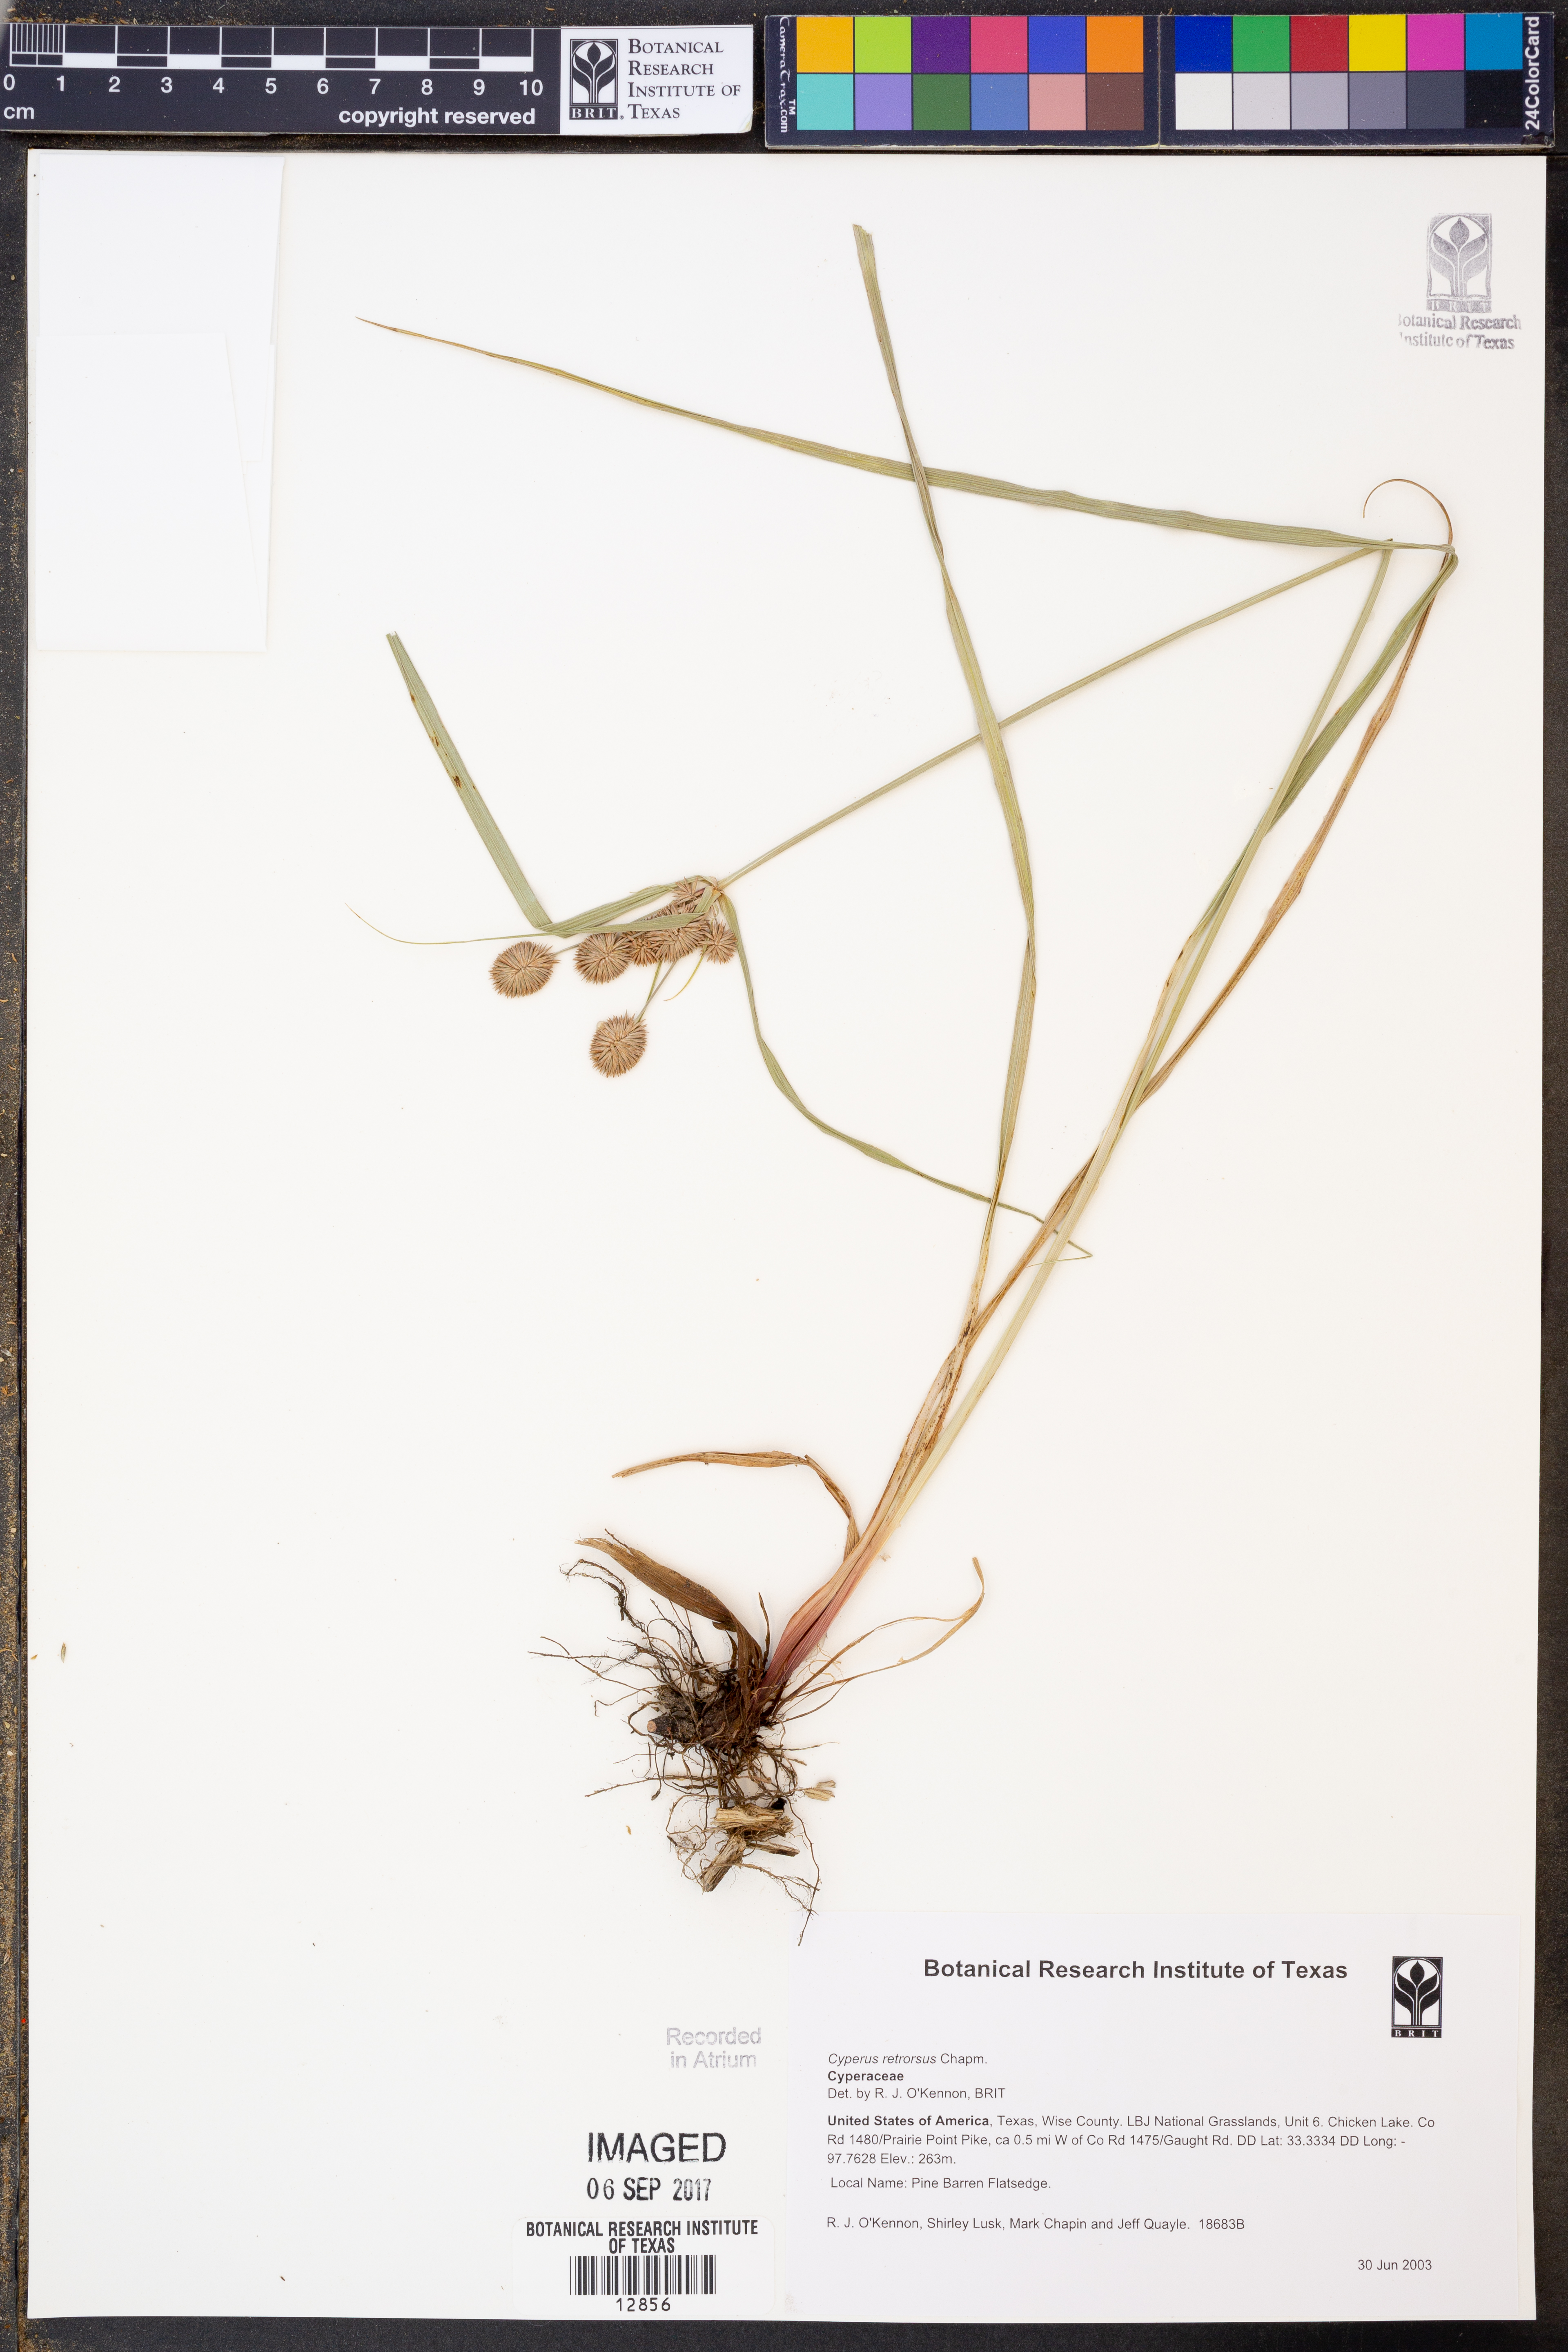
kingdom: Plantae
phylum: Tracheophyta
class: Liliopsida
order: Poales
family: Cyperaceae
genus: Cyperus
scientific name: Cyperus retrorsus
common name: Pinebarren flat sedge
